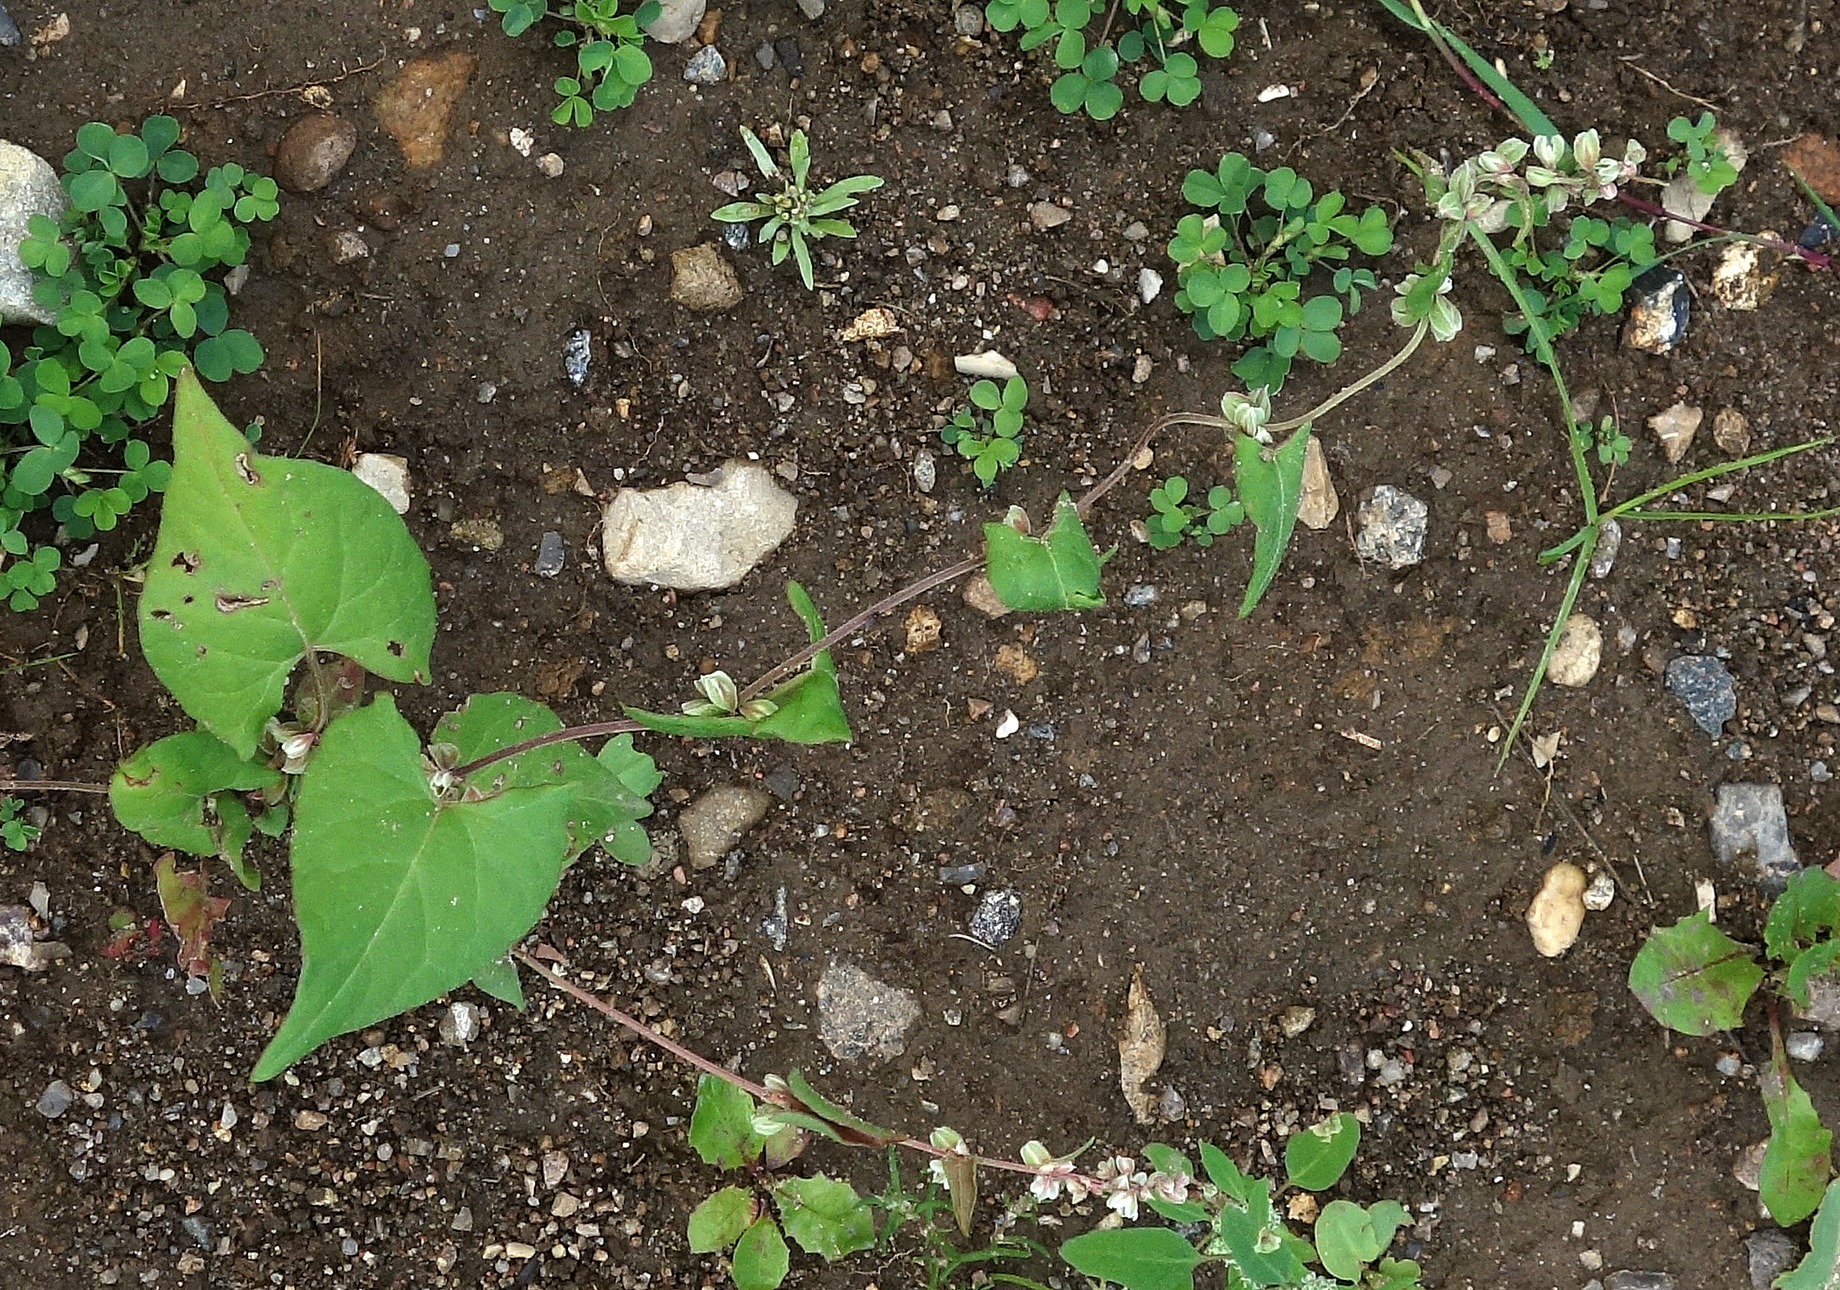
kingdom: Plantae
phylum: Tracheophyta
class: Magnoliopsida
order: Caryophyllales
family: Polygonaceae
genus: Fallopia
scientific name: Fallopia convolvulus
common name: Snerle-pileurt
